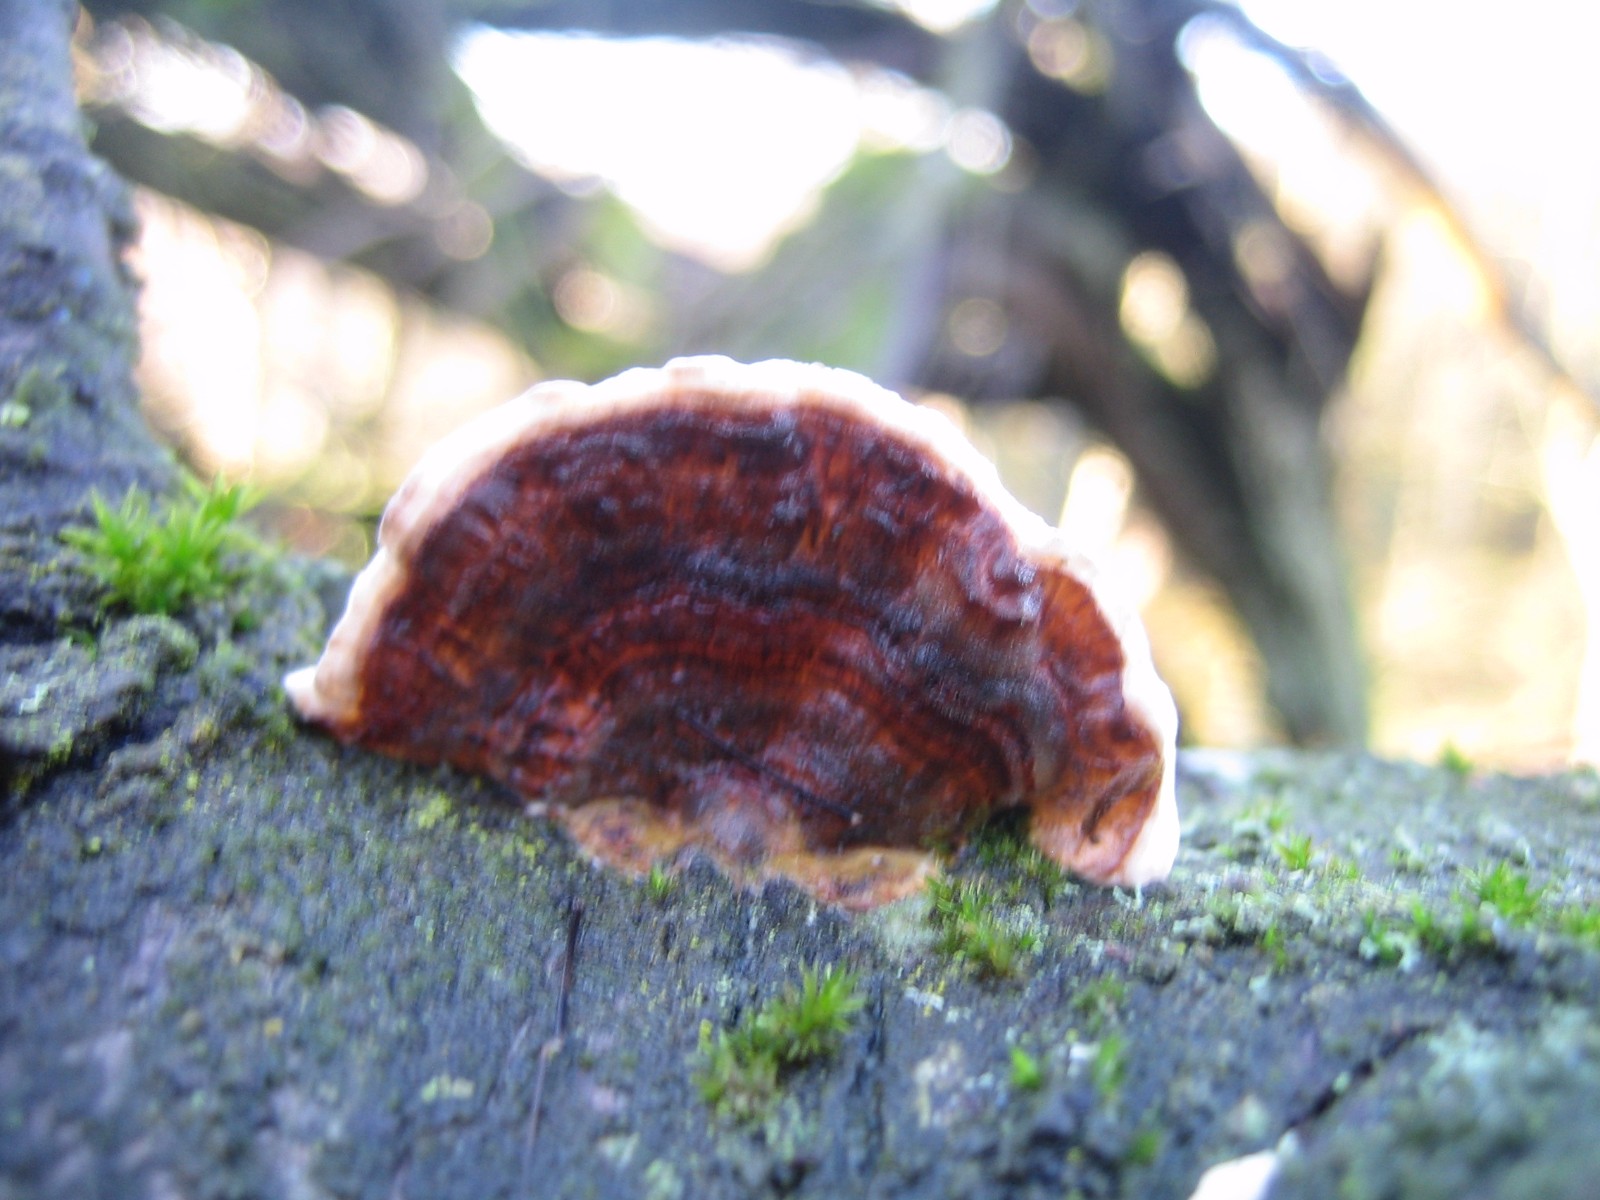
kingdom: Fungi
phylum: Basidiomycota
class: Agaricomycetes
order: Polyporales
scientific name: Polyporales
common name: poresvampordenen
